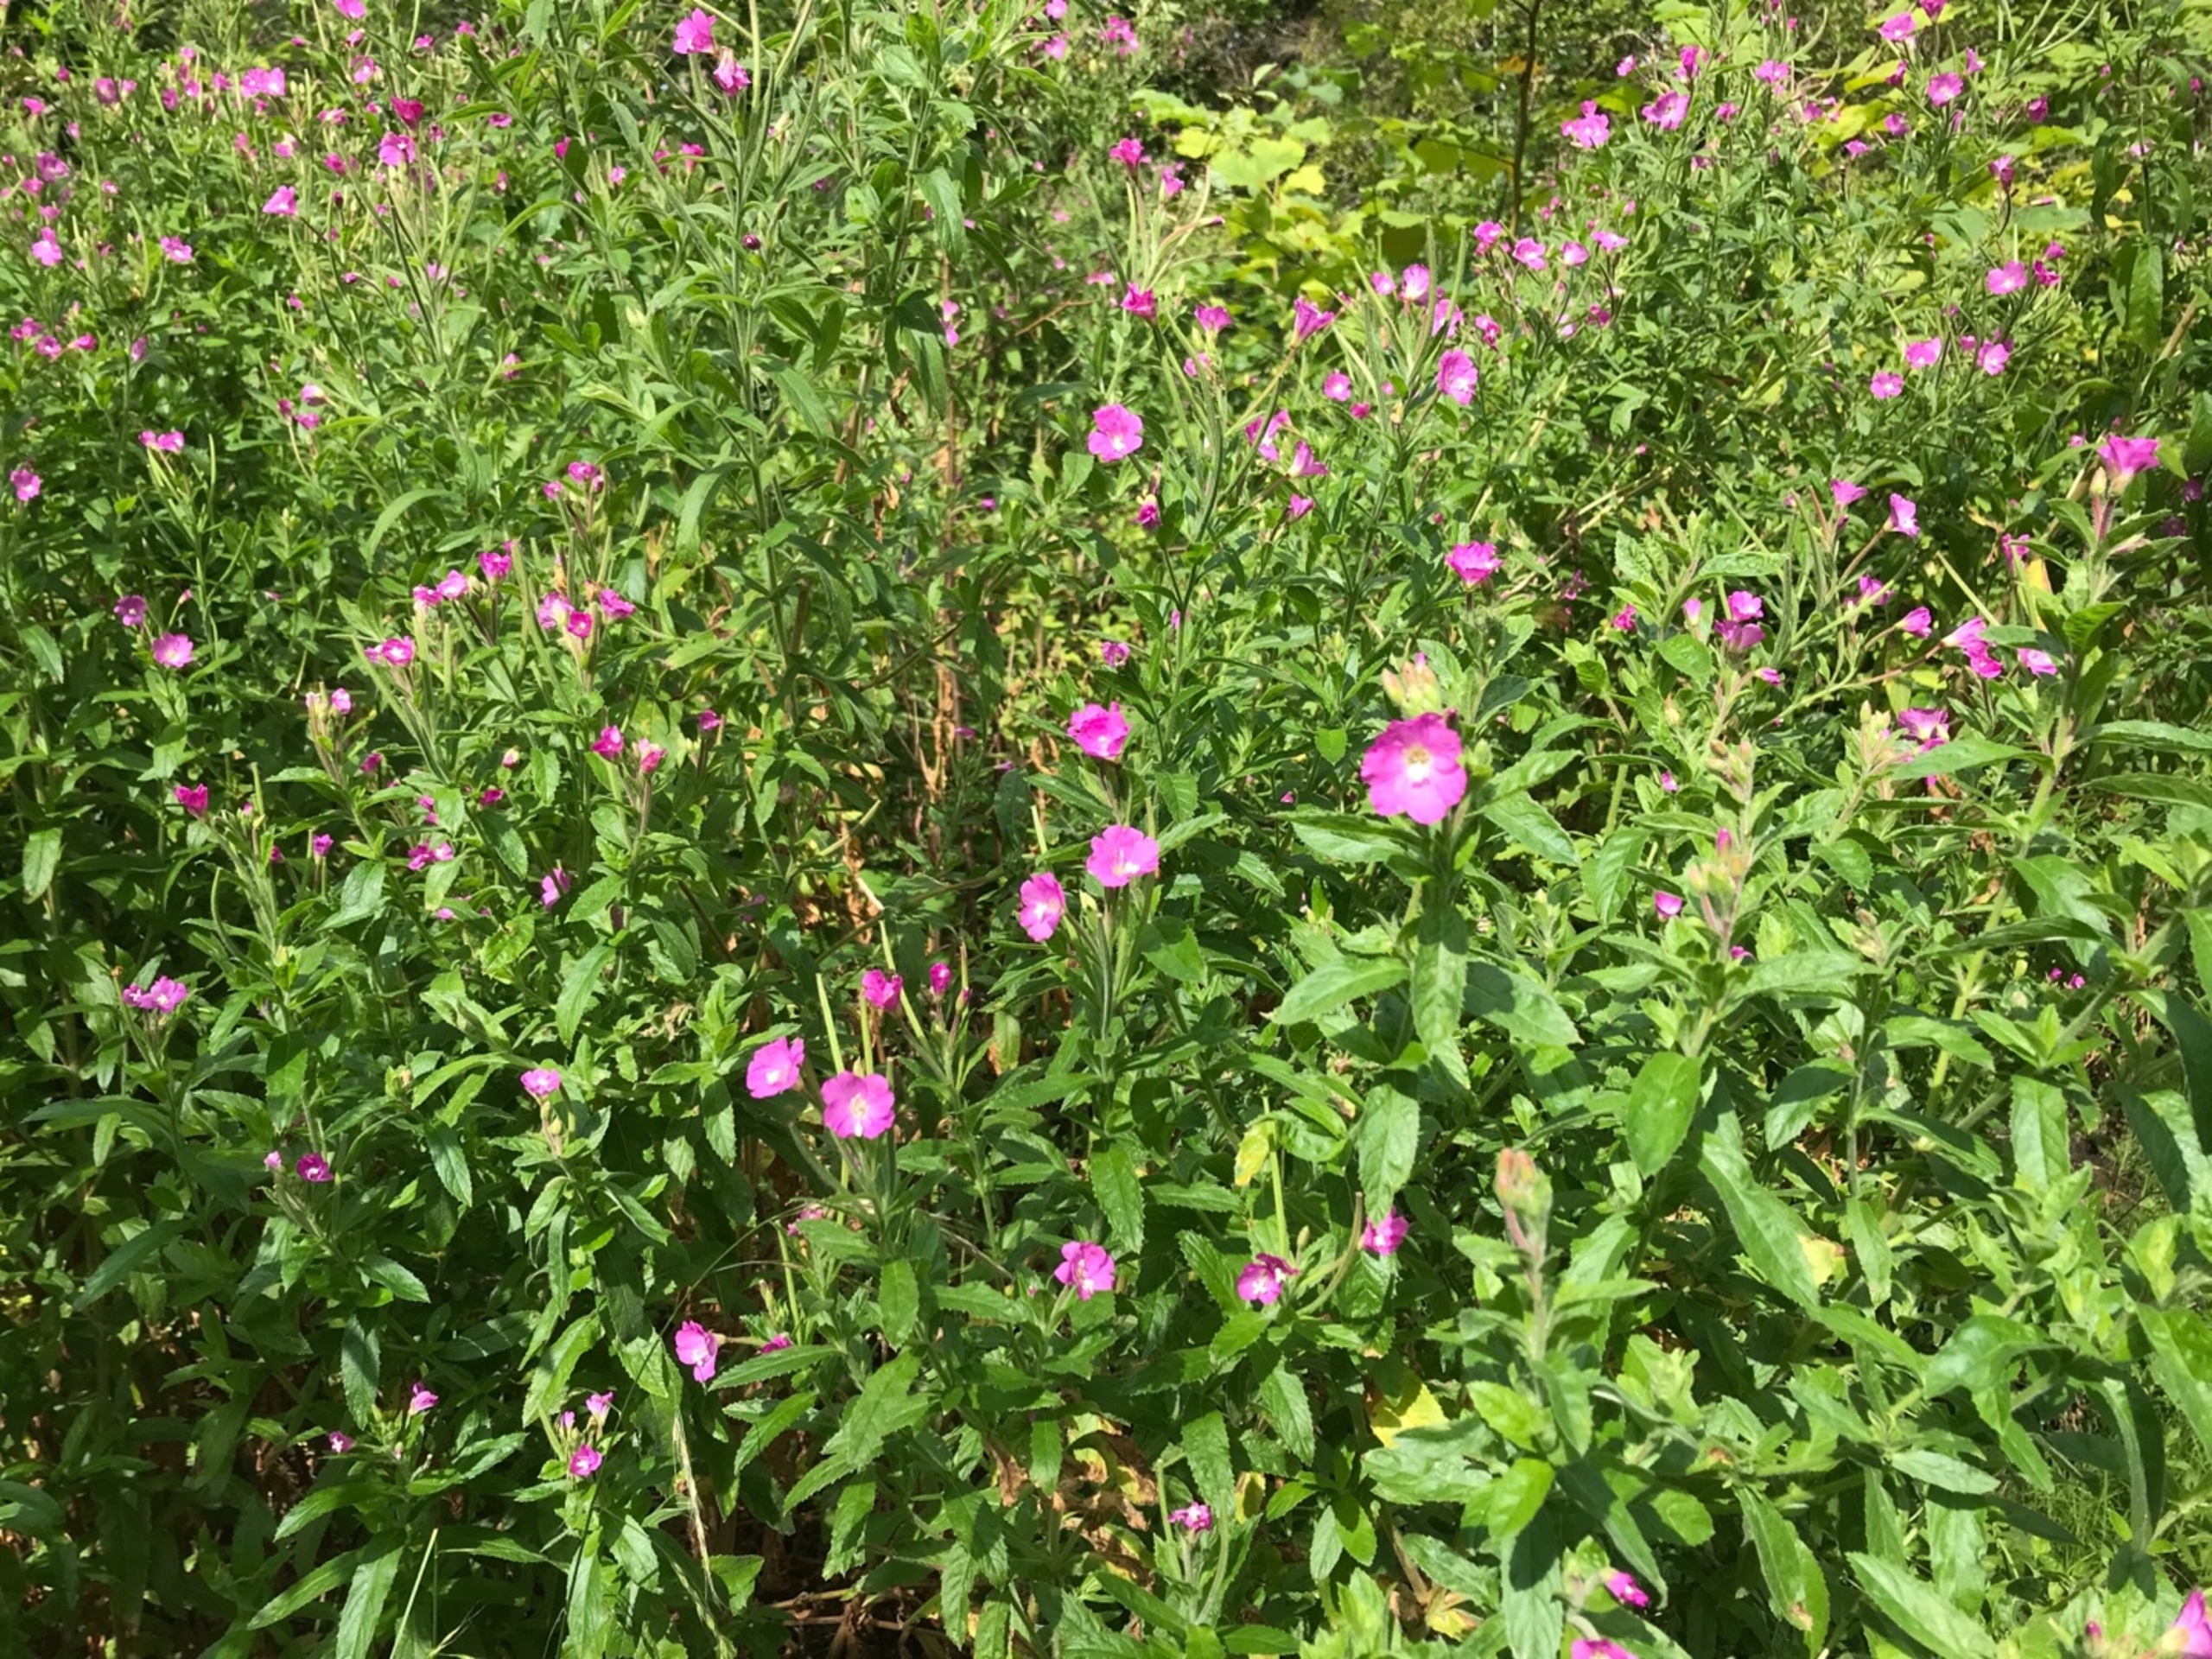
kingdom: Plantae
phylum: Tracheophyta
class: Magnoliopsida
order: Myrtales
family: Onagraceae
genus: Epilobium
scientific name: Epilobium hirsutum
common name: Lådden dueurt
